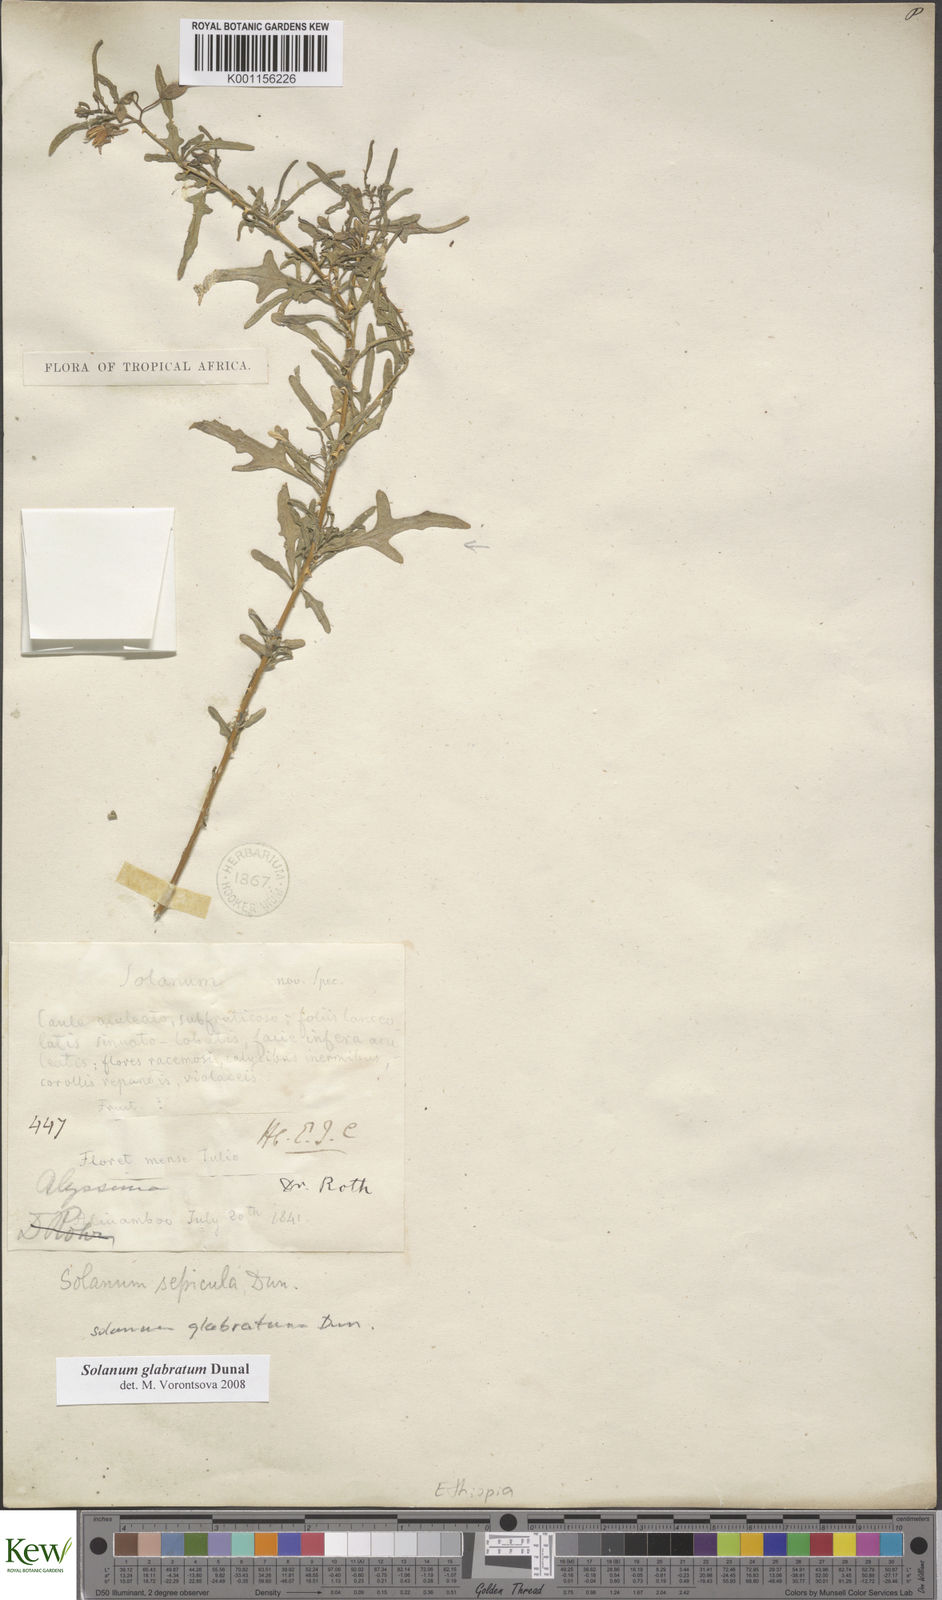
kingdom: Plantae
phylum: Tracheophyta
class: Magnoliopsida
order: Solanales
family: Solanaceae
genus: Solanum
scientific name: Solanum glabratum
